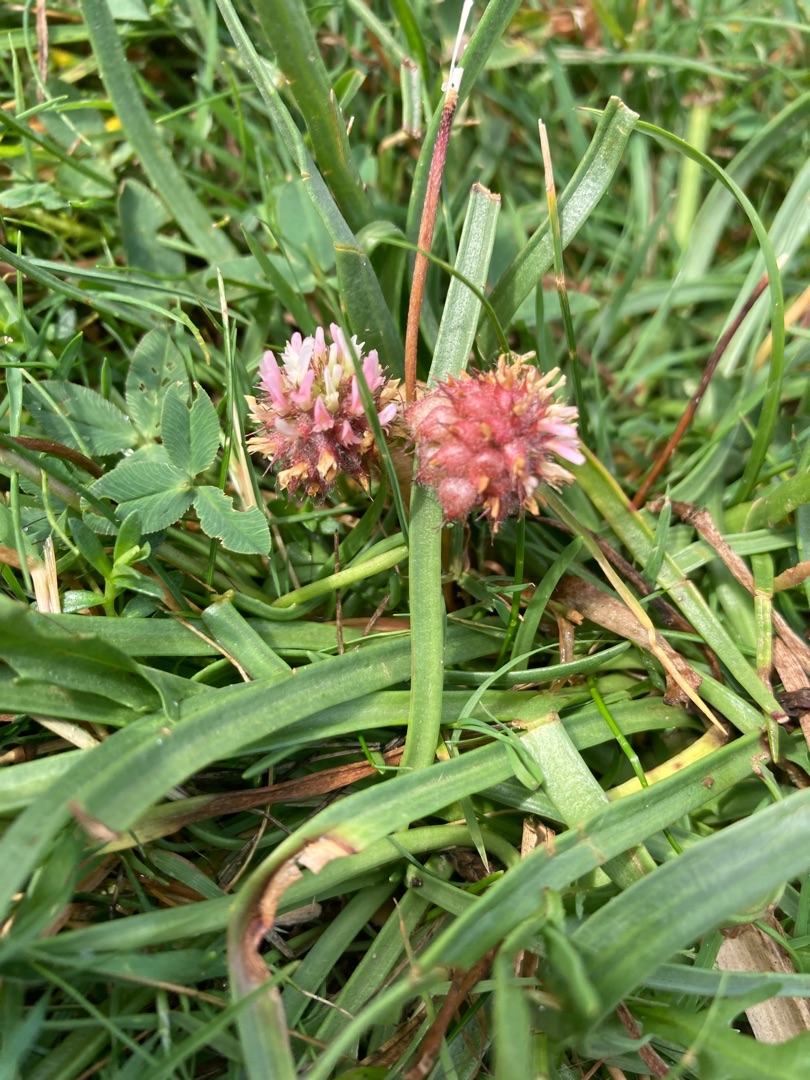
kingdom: Plantae
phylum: Tracheophyta
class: Magnoliopsida
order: Fabales
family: Fabaceae
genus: Trifolium
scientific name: Trifolium fragiferum
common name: Jordbær-kløver
